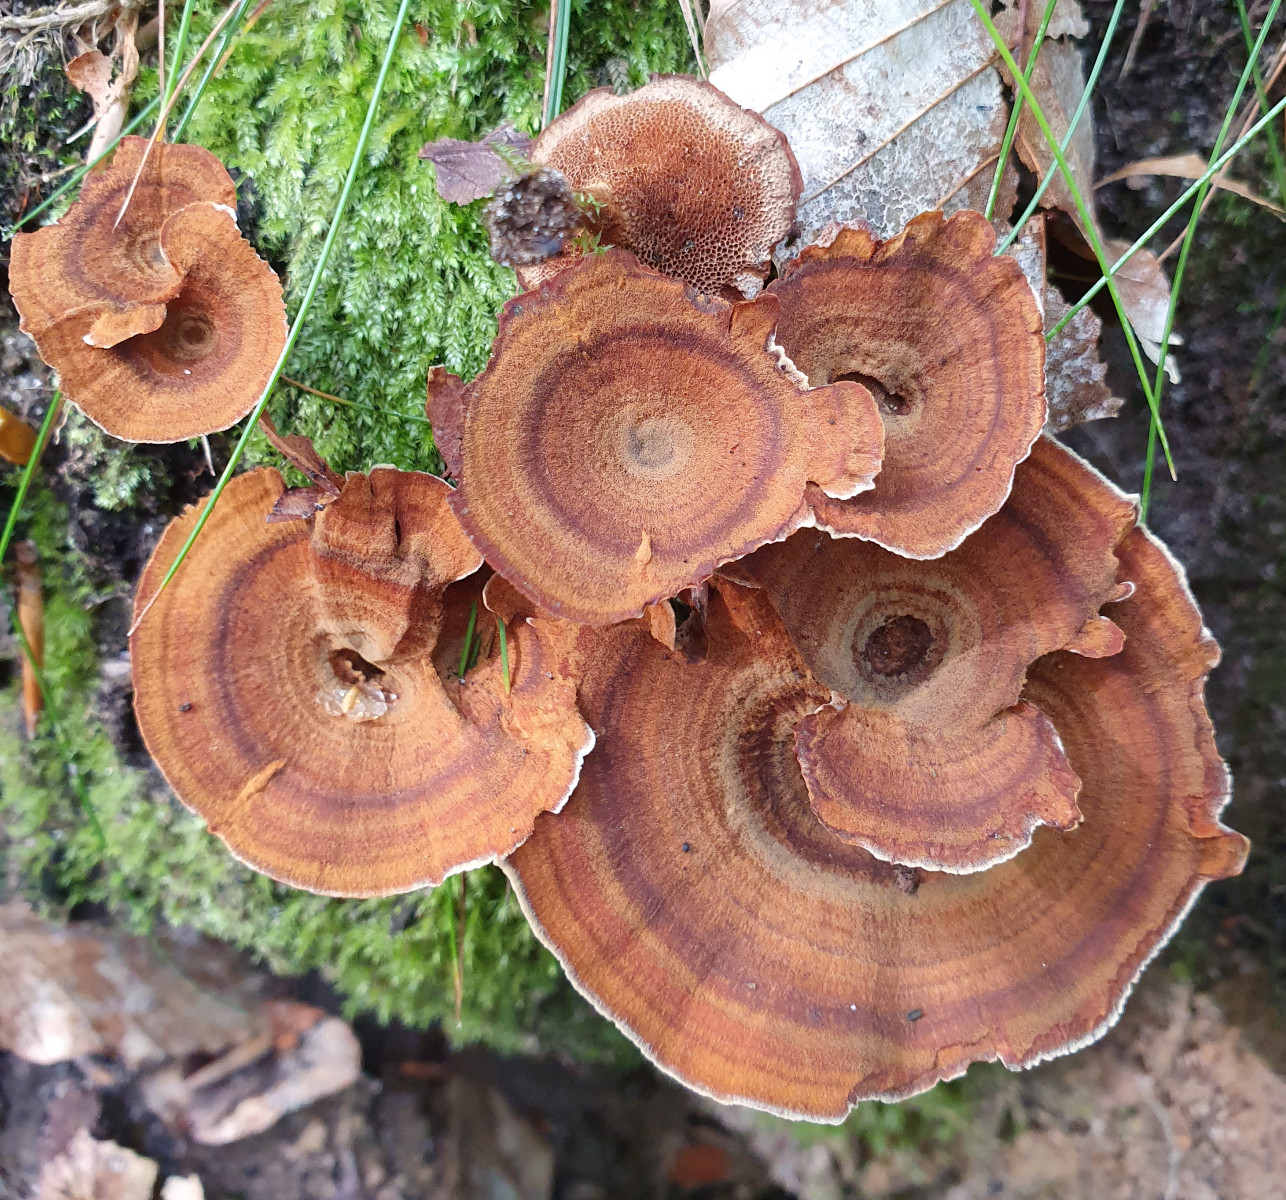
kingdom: Fungi
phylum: Basidiomycota
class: Agaricomycetes
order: Hymenochaetales
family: Hymenochaetaceae
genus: Coltricia
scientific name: Coltricia
